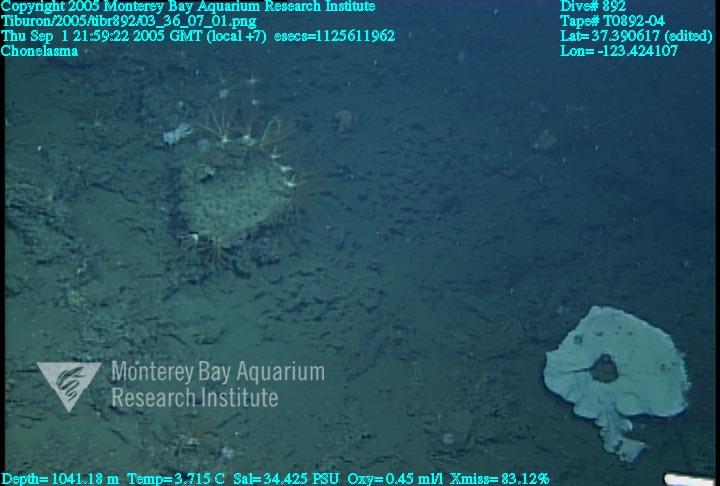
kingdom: Animalia
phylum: Porifera
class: Hexactinellida
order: Sceptrulophora
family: Euretidae
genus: Chonelasma
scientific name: Chonelasma
